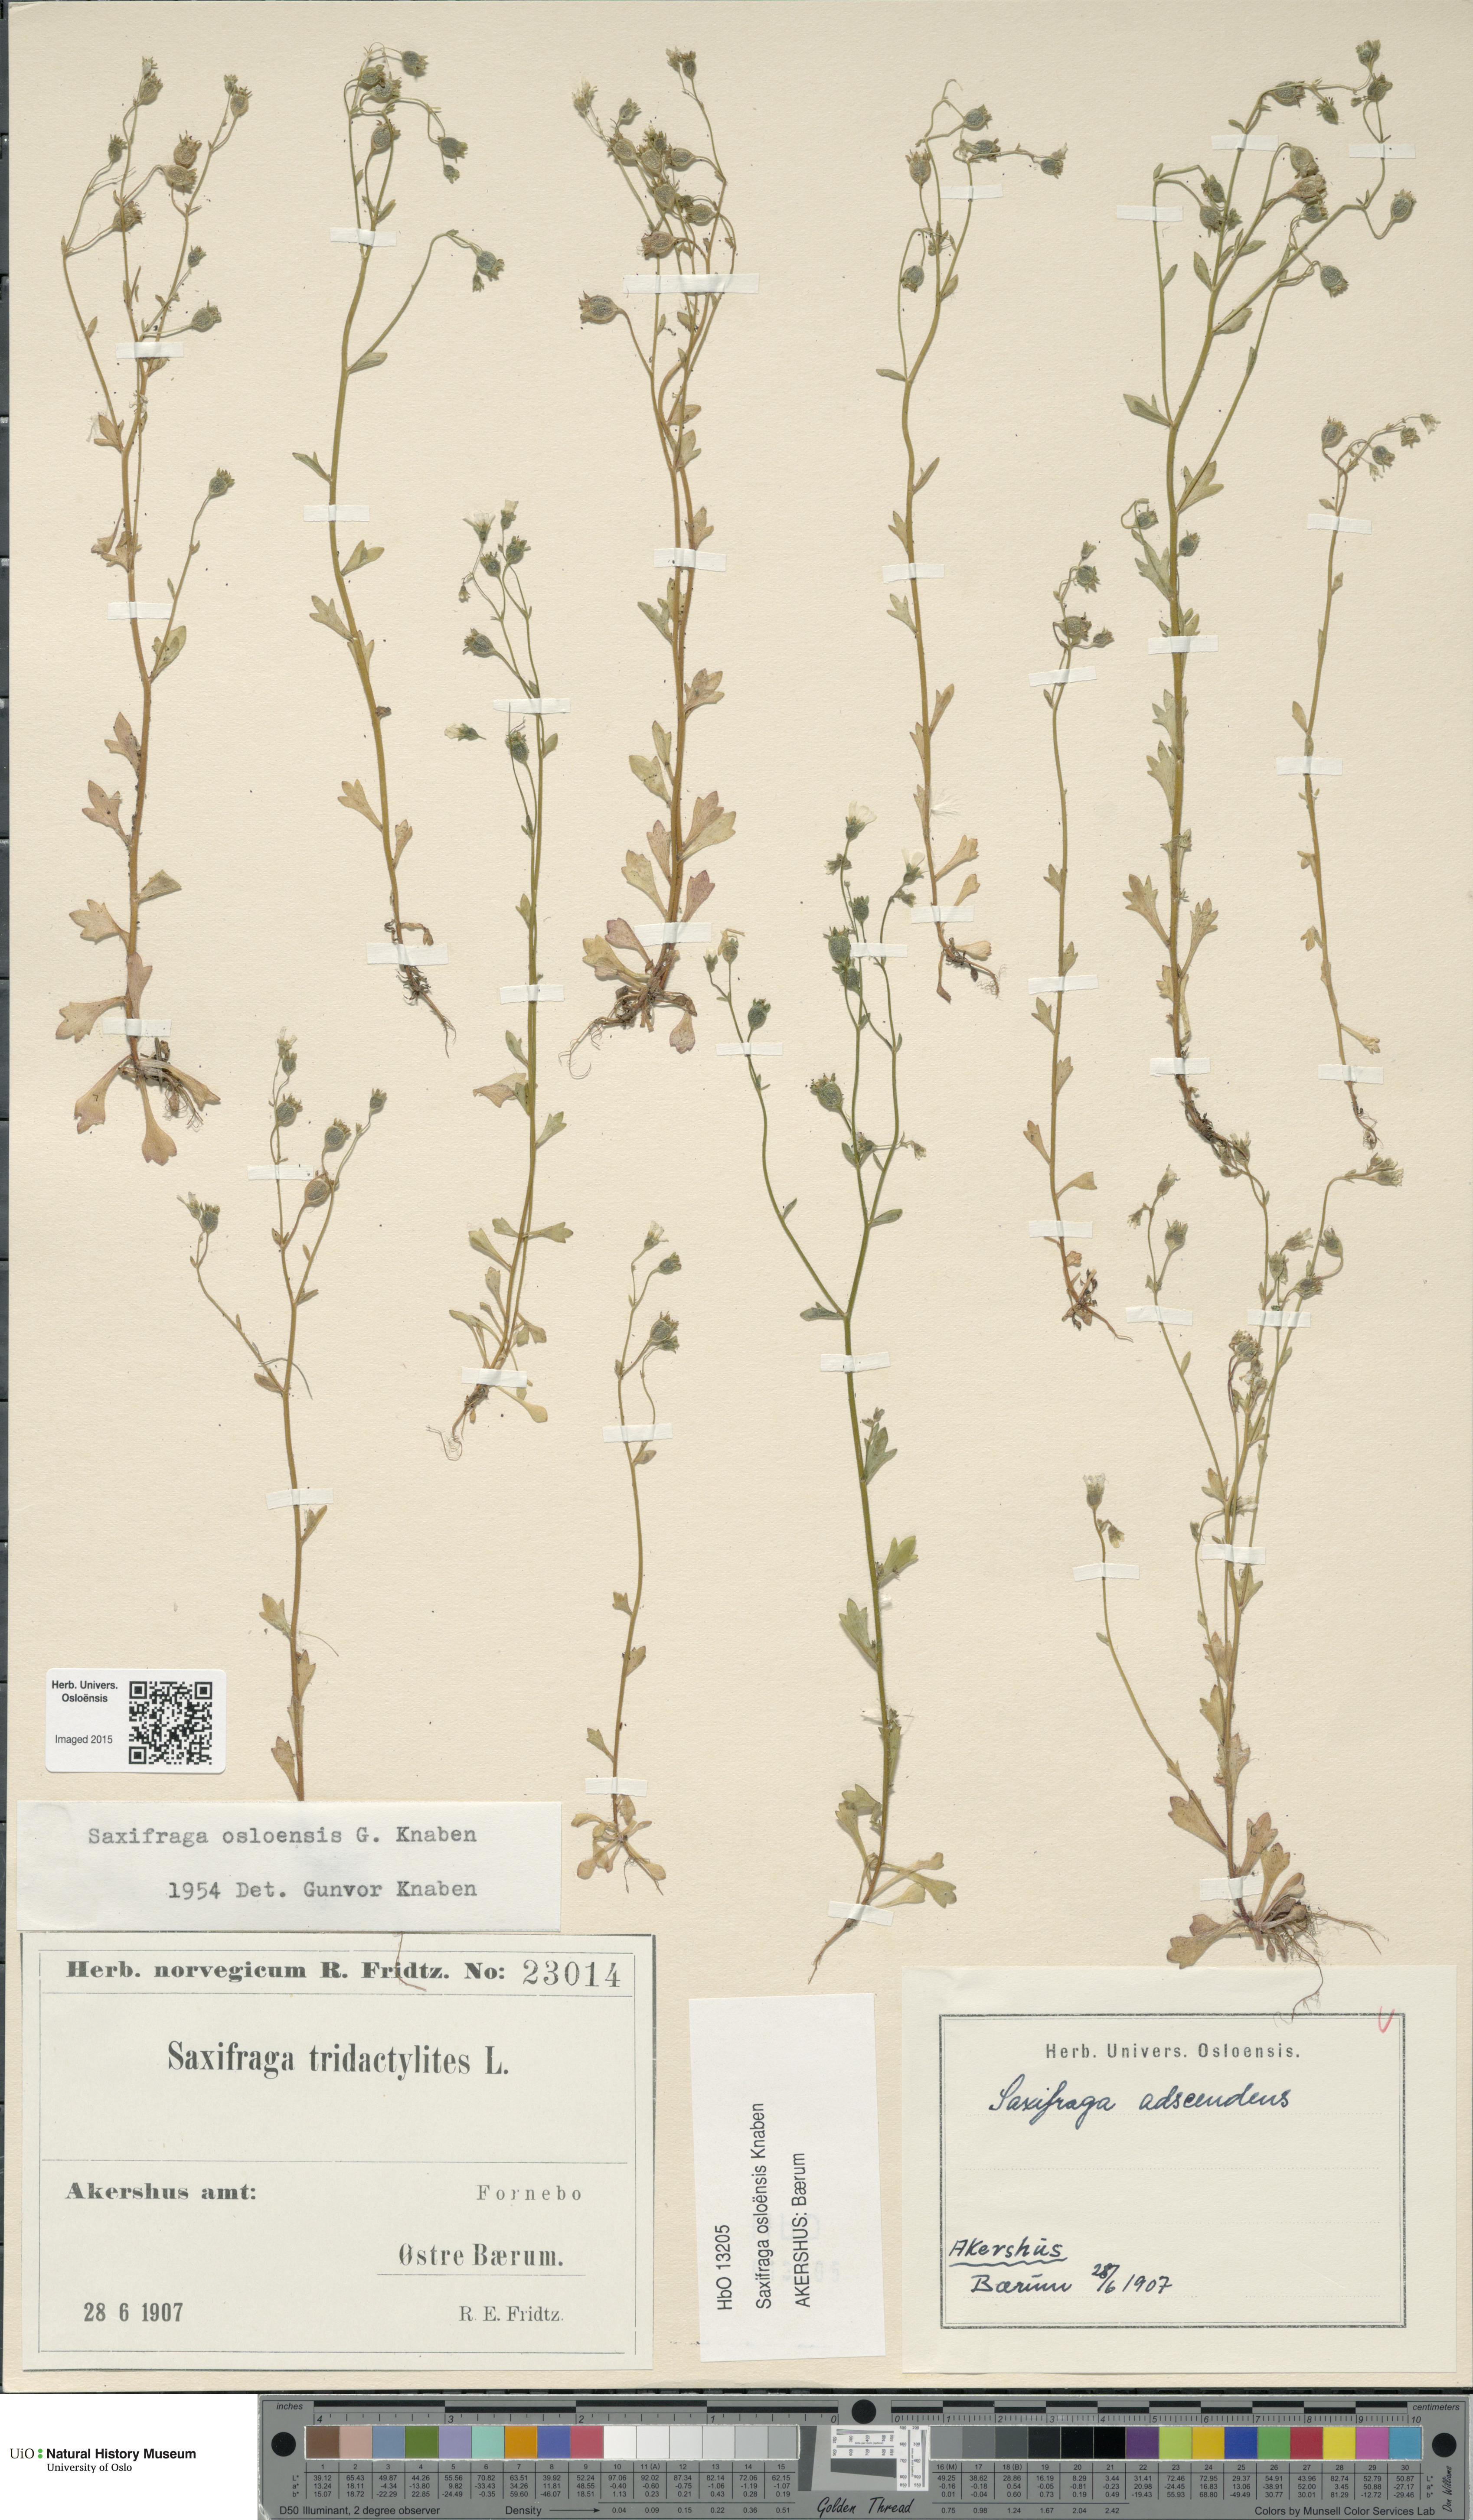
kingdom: Plantae
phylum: Tracheophyta
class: Magnoliopsida
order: Saxifragales
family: Saxifragaceae
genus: Saxifraga
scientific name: Saxifraga osloensis
